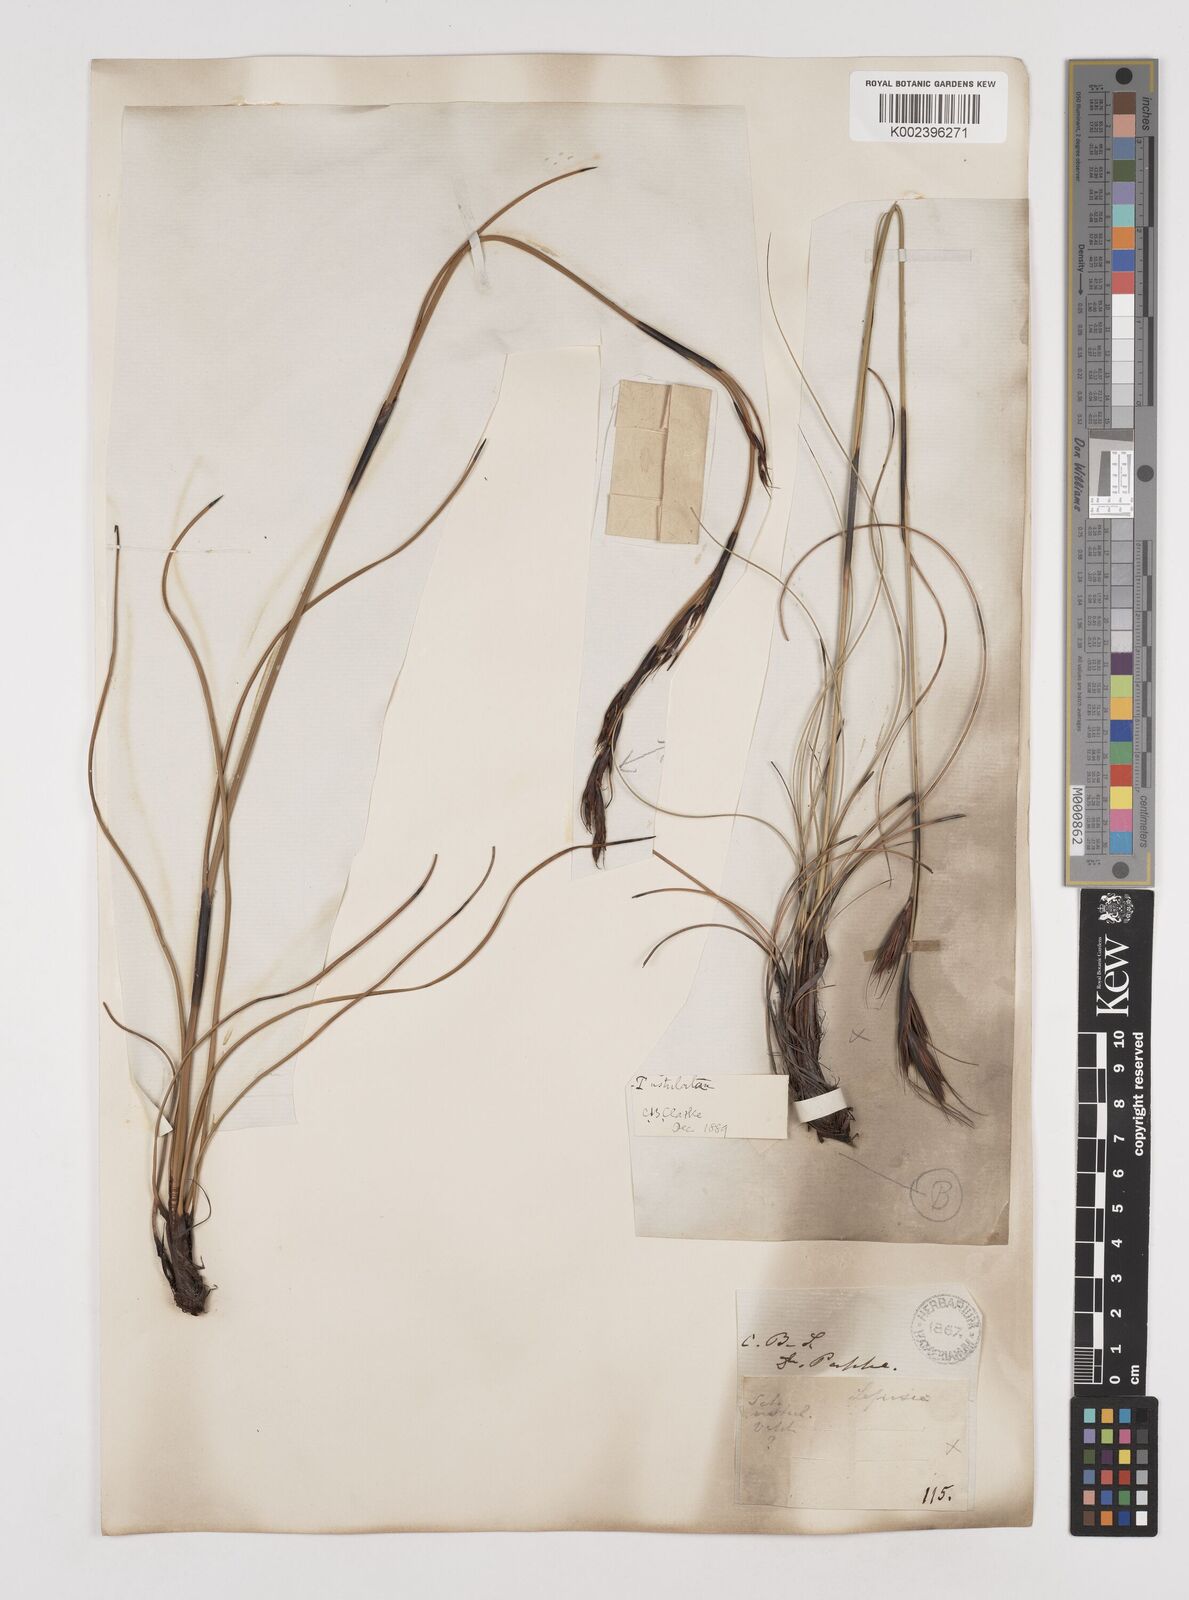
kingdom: Plantae
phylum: Tracheophyta
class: Liliopsida
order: Poales
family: Cyperaceae
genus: Tetraria
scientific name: Tetraria ustulata
